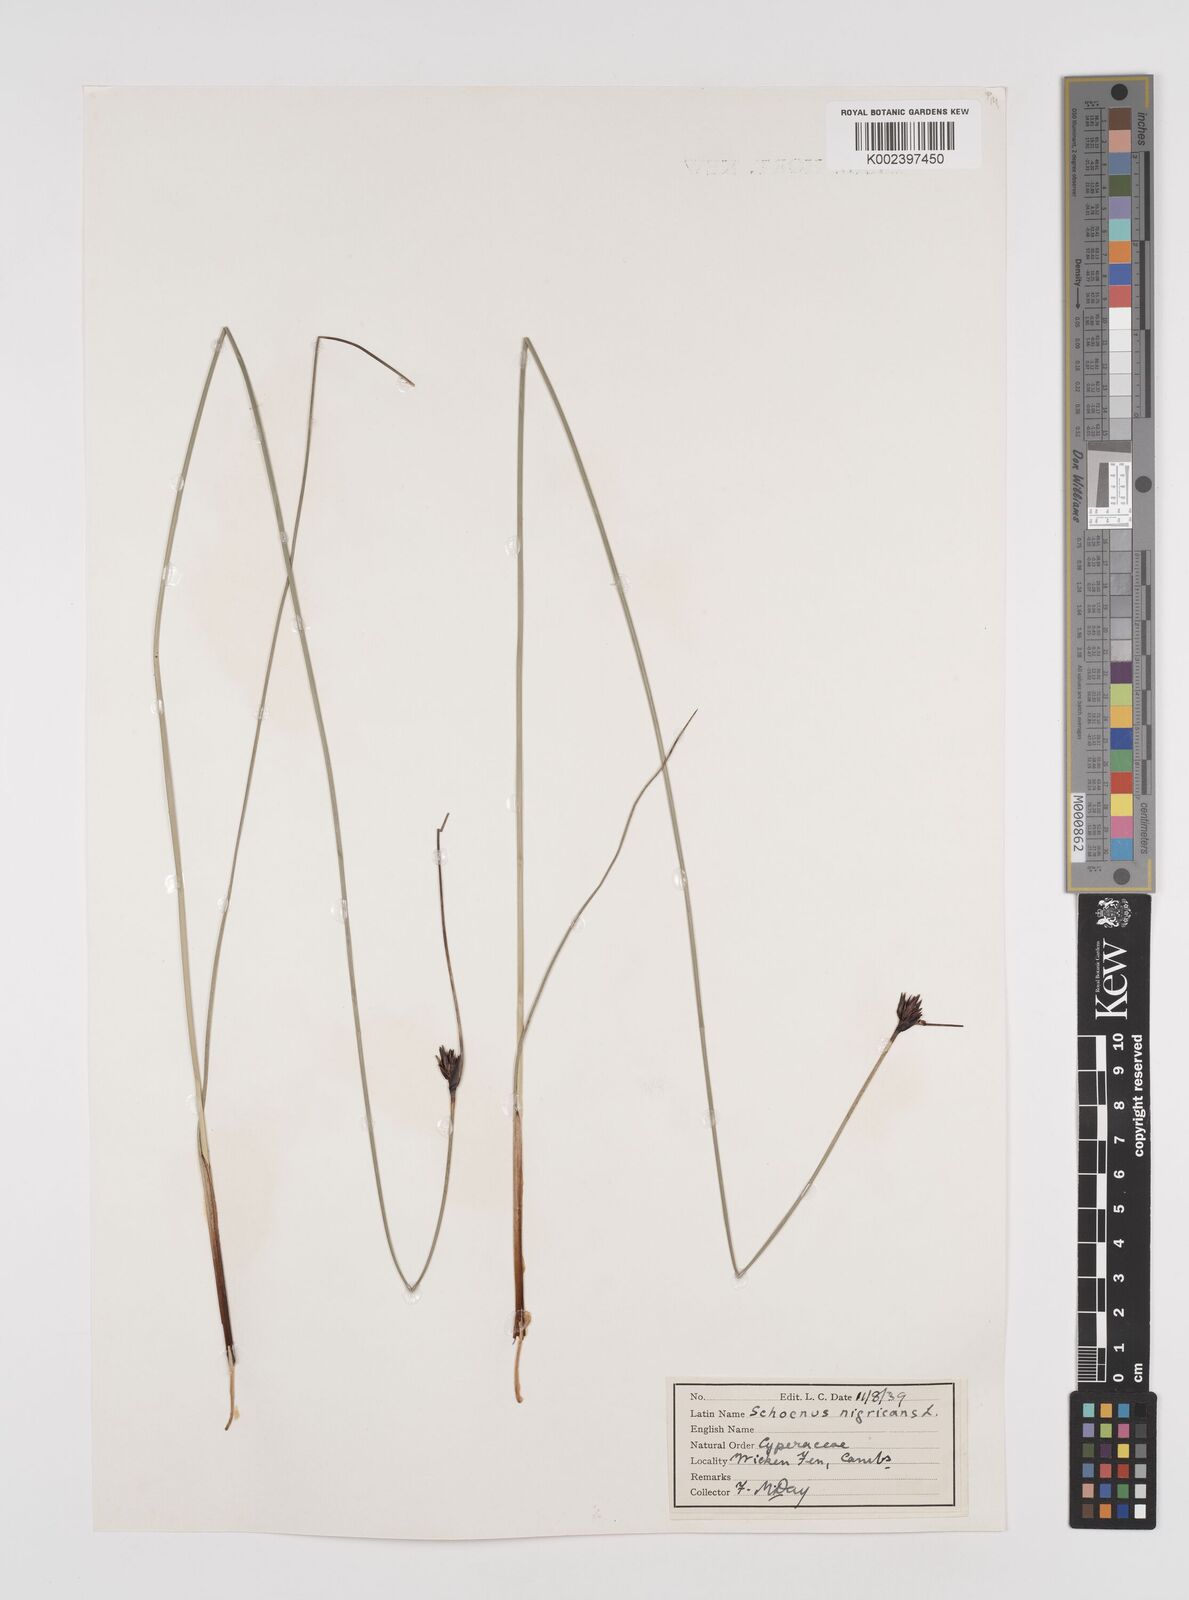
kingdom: Plantae
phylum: Tracheophyta
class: Liliopsida
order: Poales
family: Cyperaceae
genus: Schoenus
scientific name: Schoenus nigricans
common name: Black bog-rush
